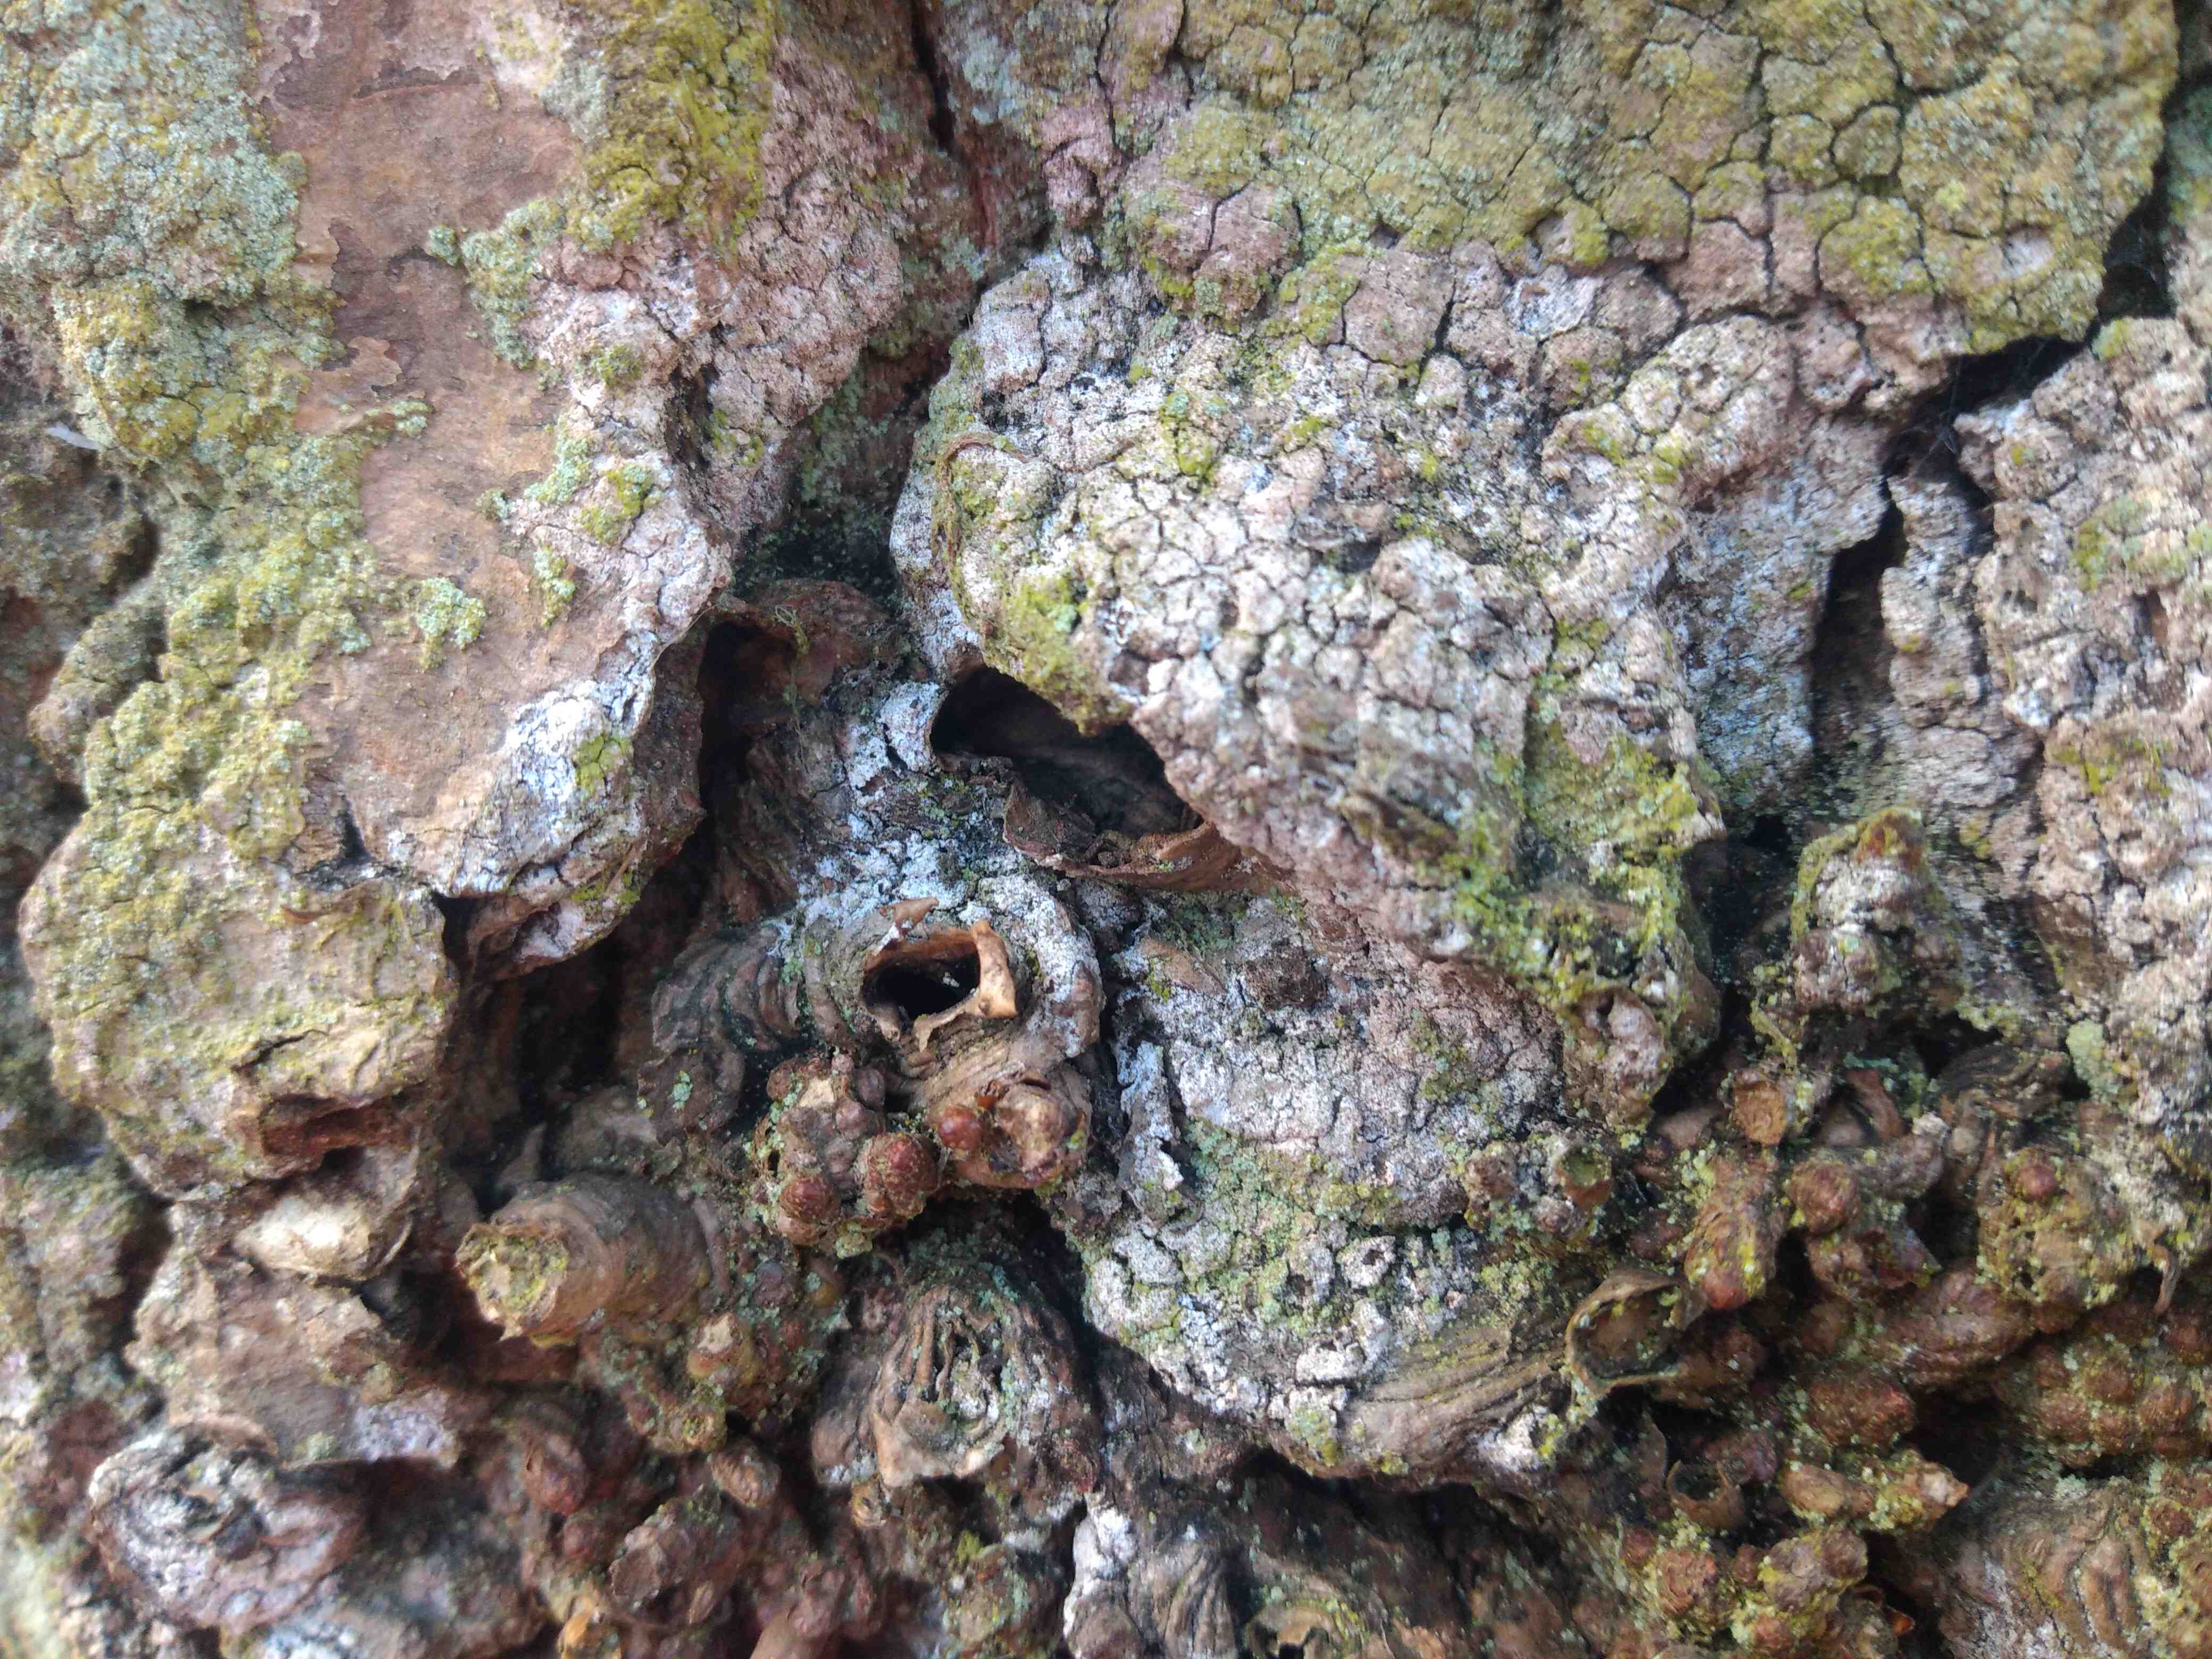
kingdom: Plantae
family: Lecanoromycetidae
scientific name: Lecanoromycetidae
